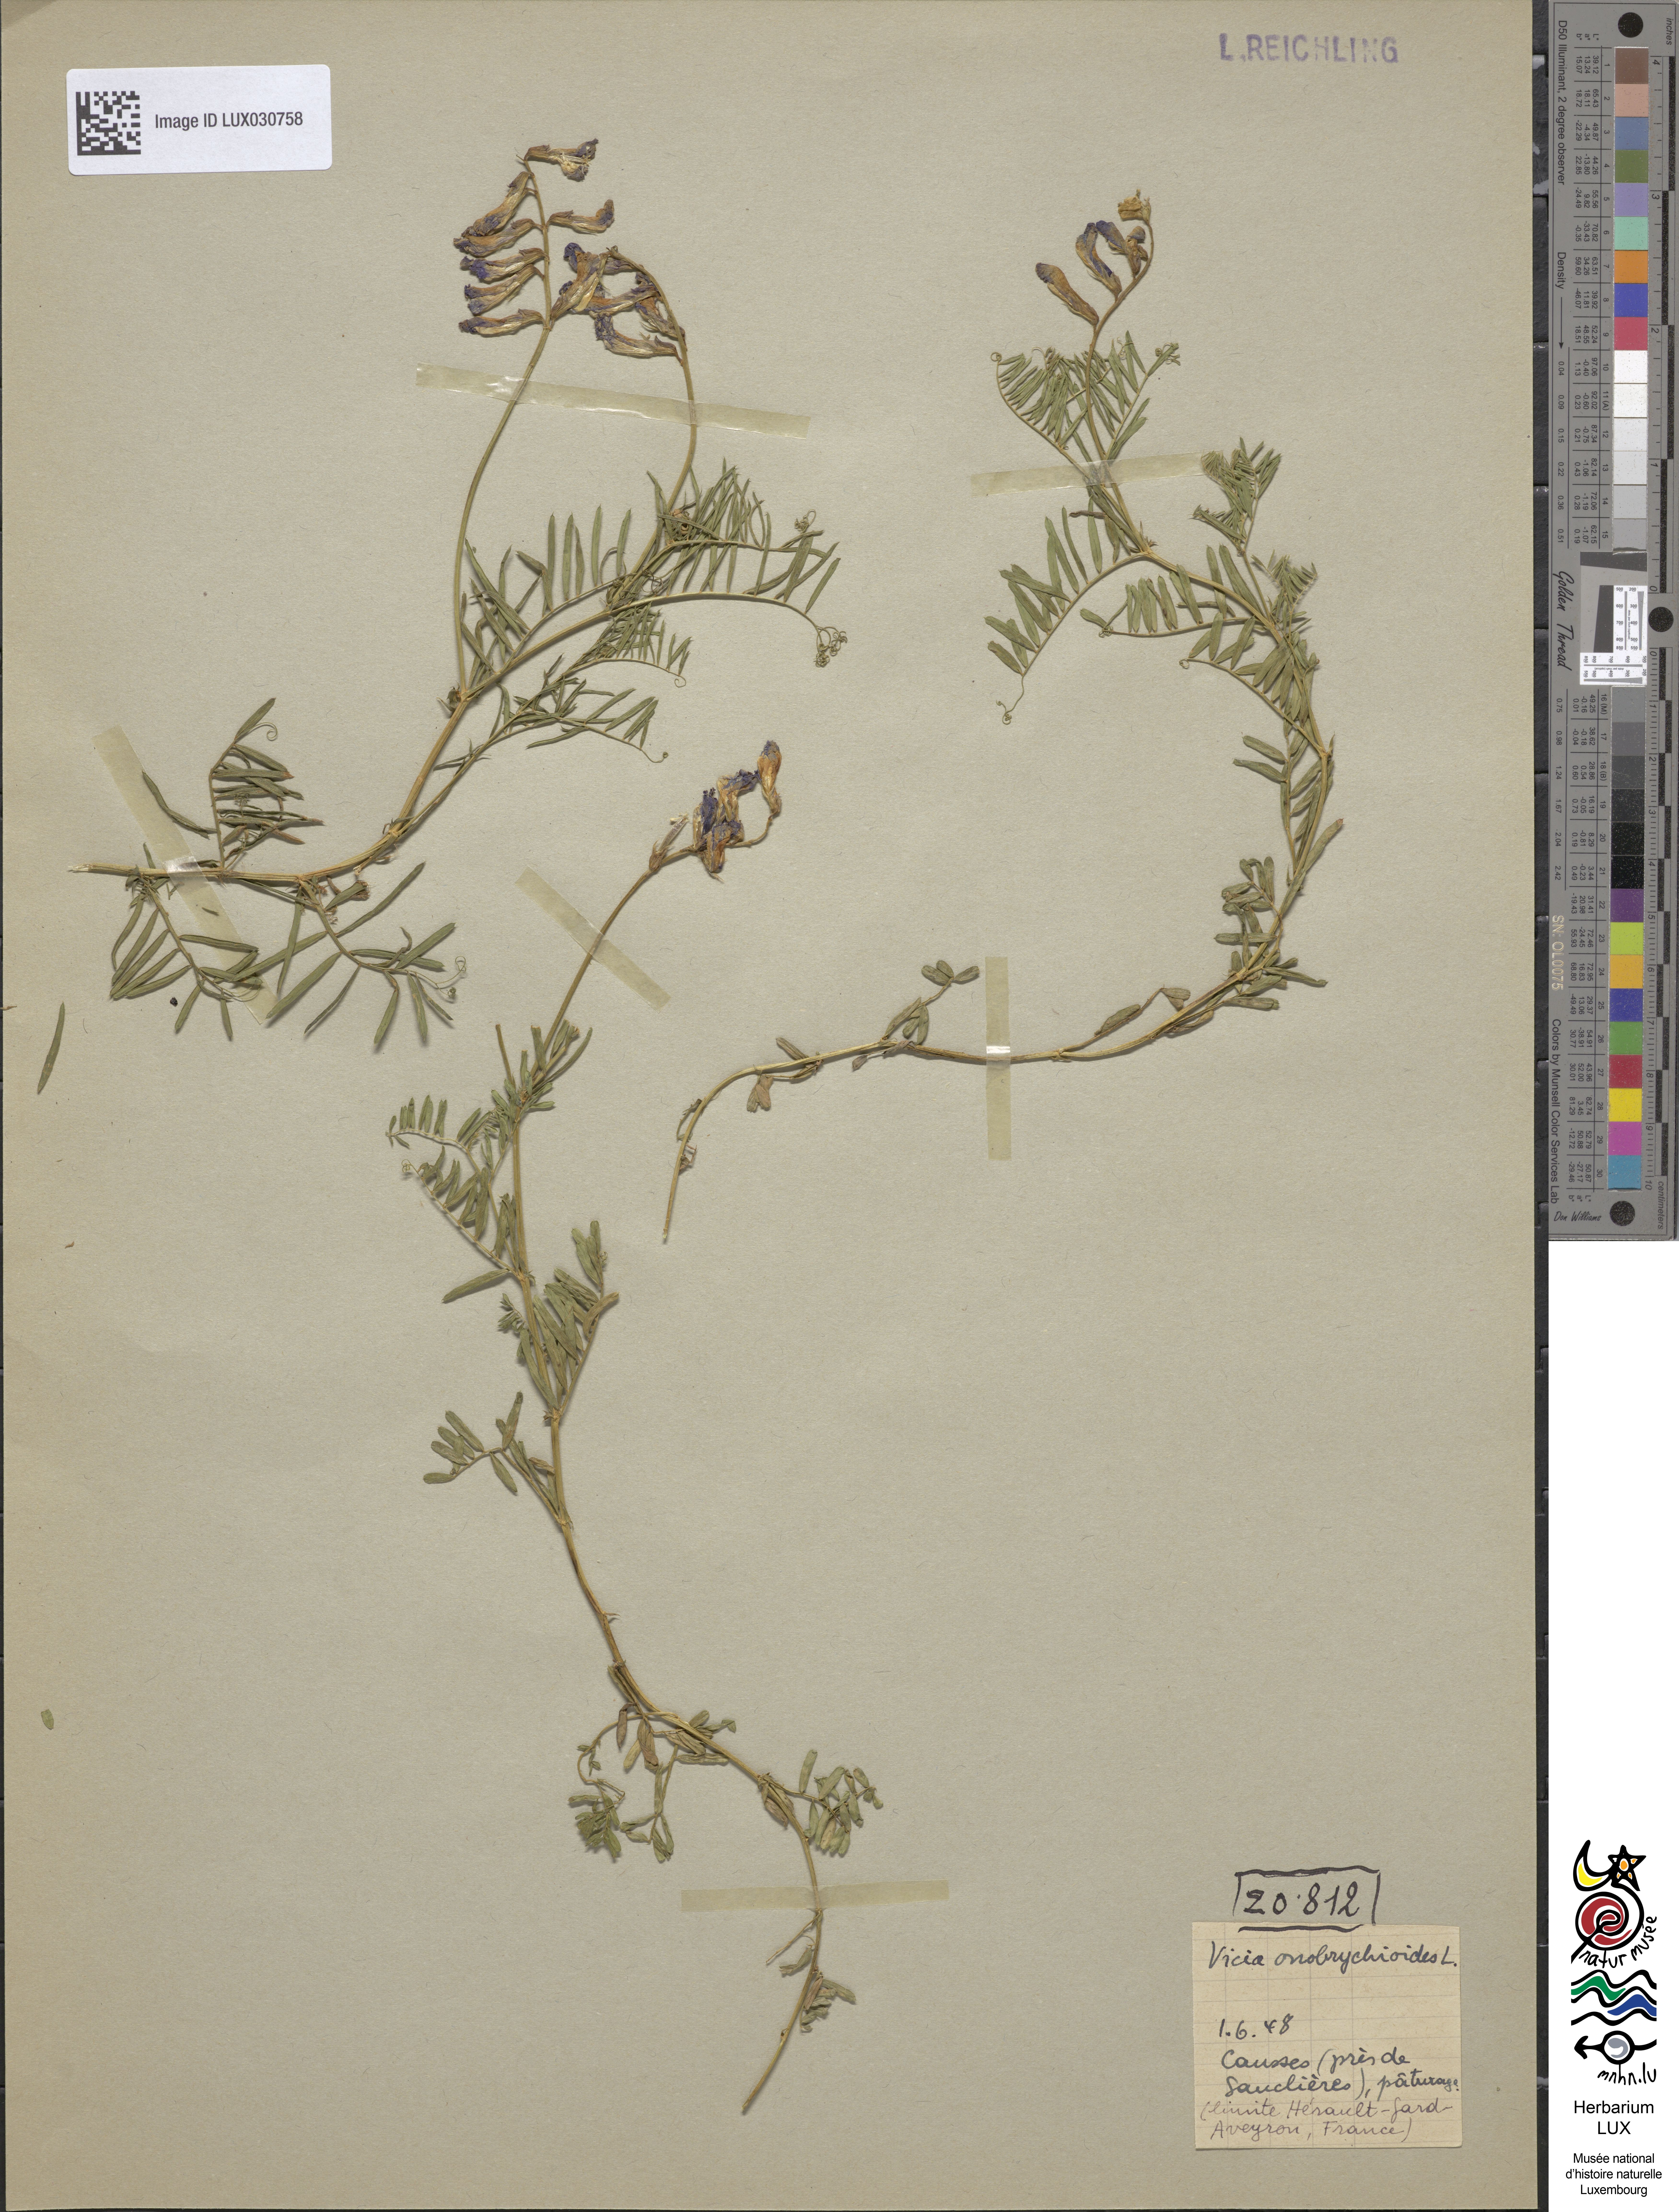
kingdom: Plantae
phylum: Tracheophyta
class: Magnoliopsida
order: Fabales
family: Fabaceae
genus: Vicia
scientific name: Vicia onobrychioides
